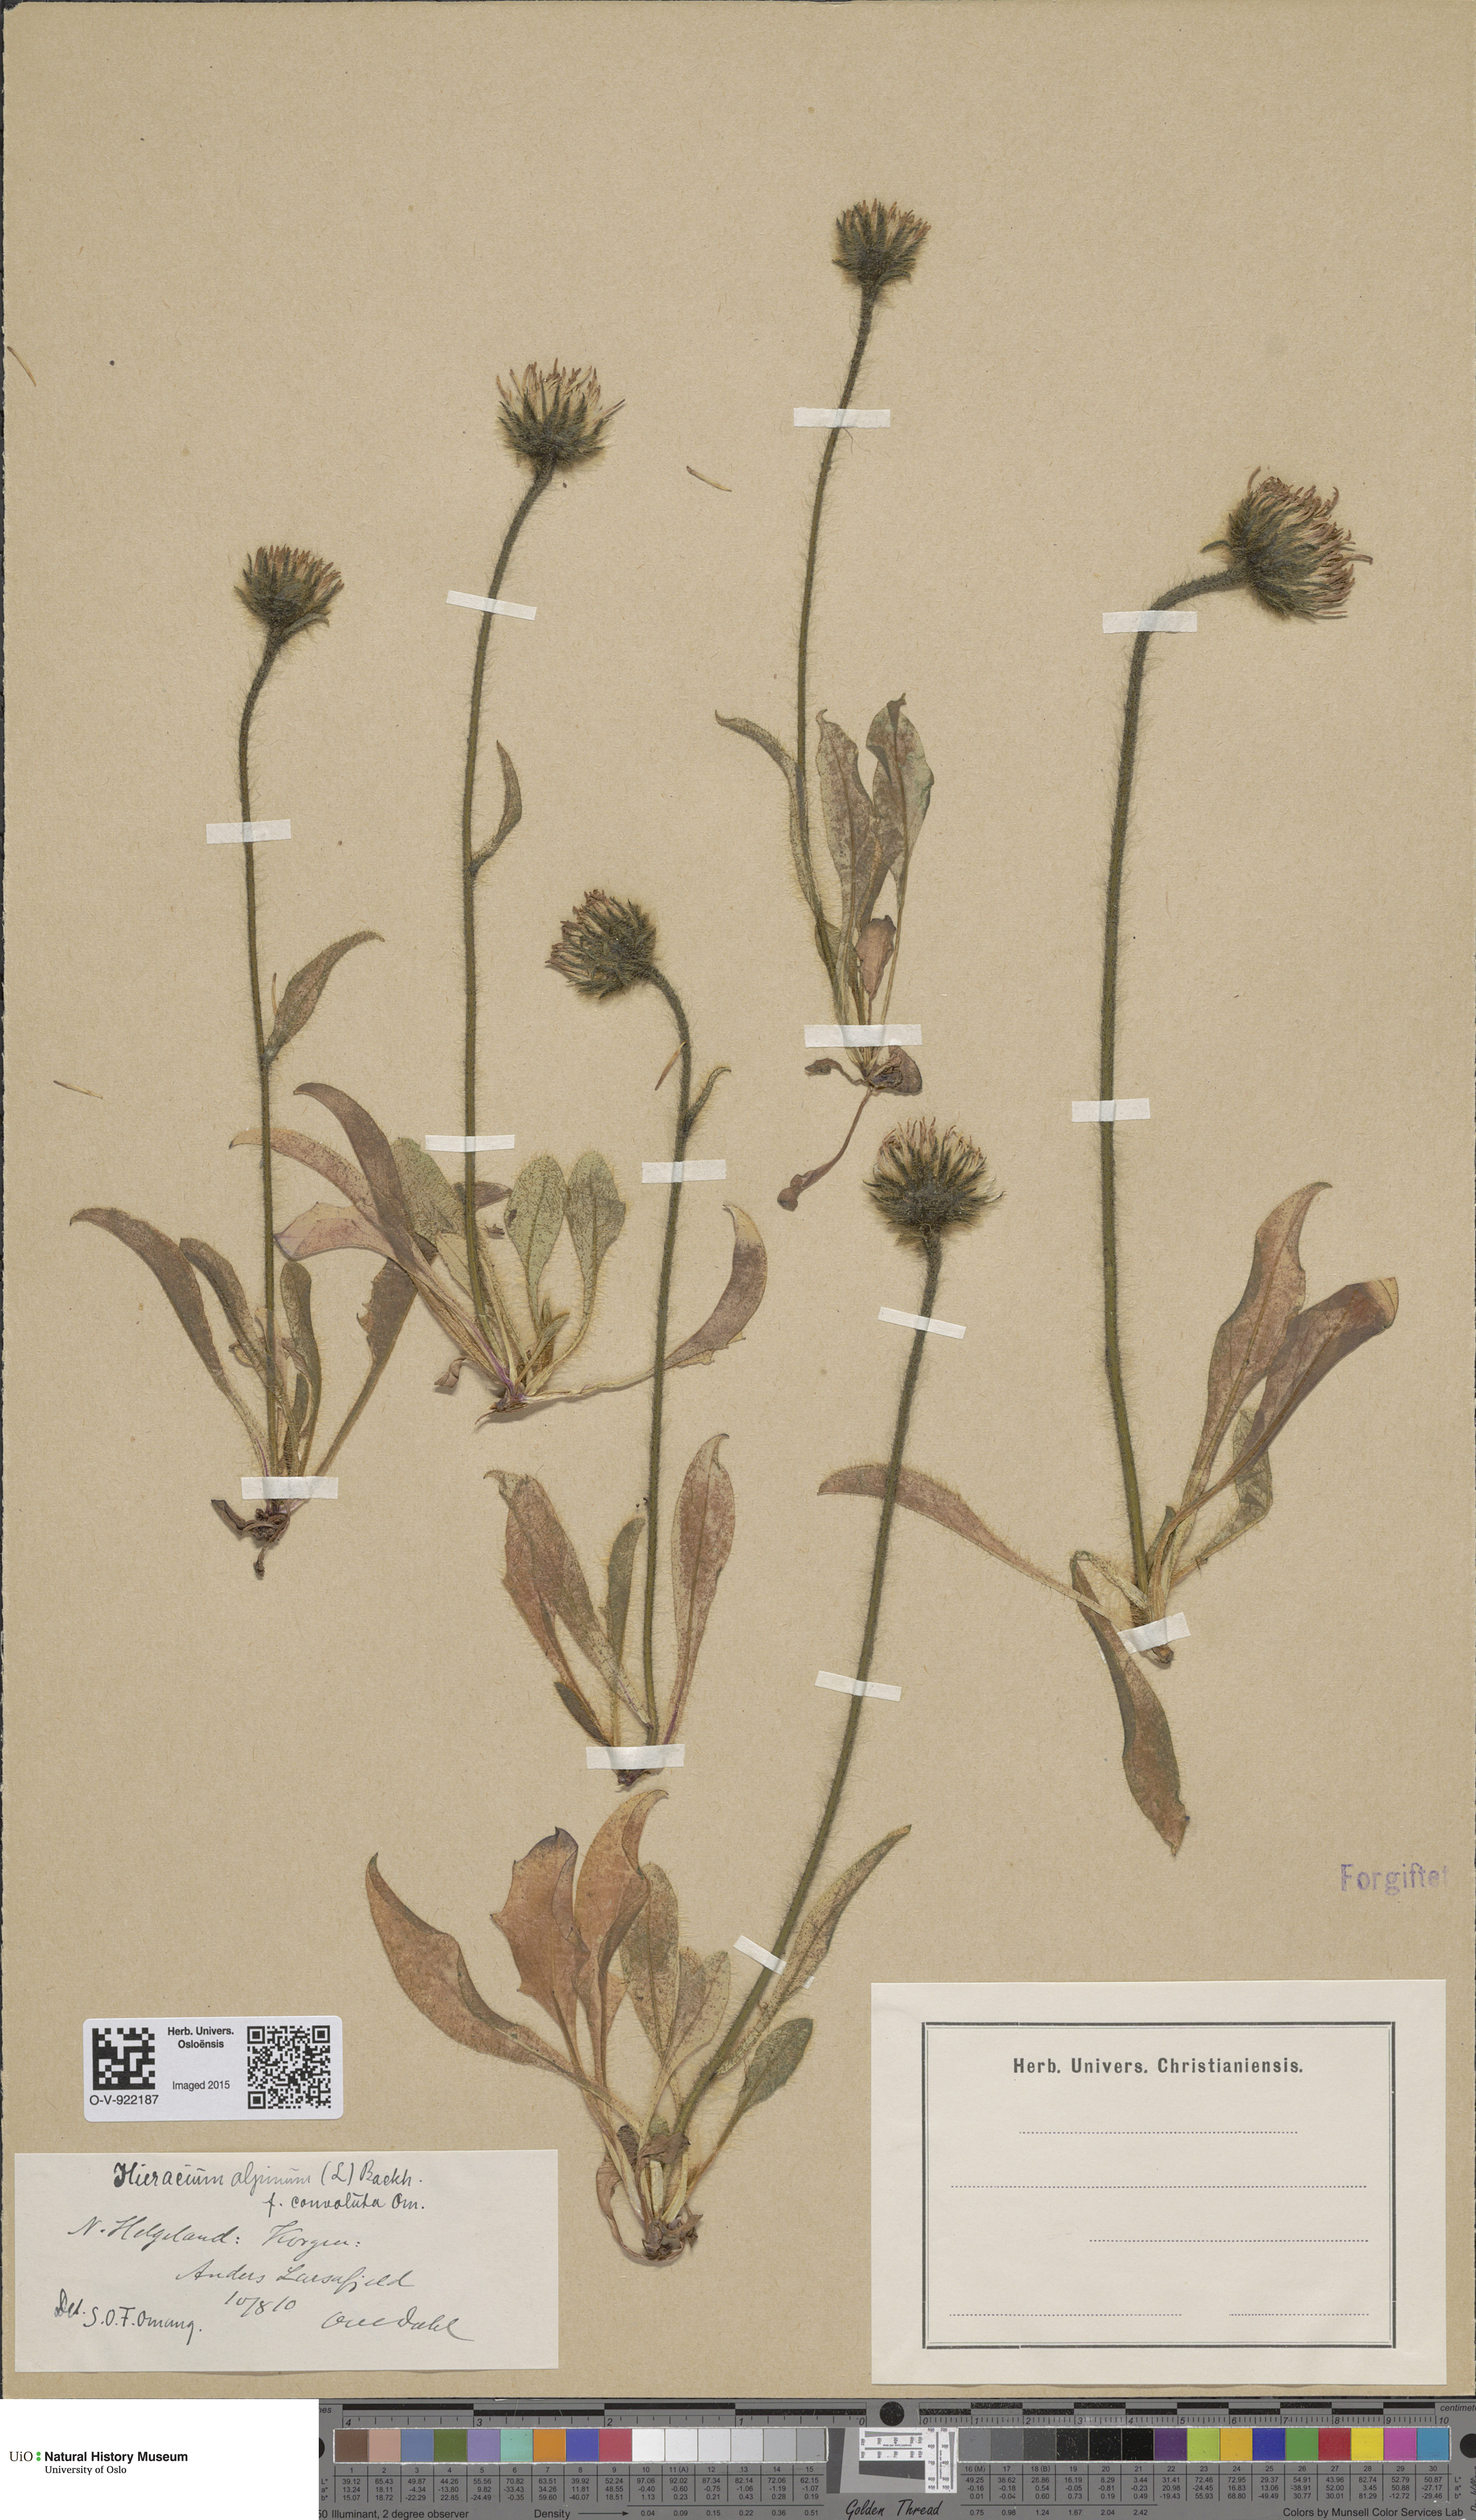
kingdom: Plantae
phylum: Tracheophyta
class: Magnoliopsida
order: Asterales
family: Asteraceae
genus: Hieracium
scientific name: Hieracium alpinum
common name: Alpine hawkweed
